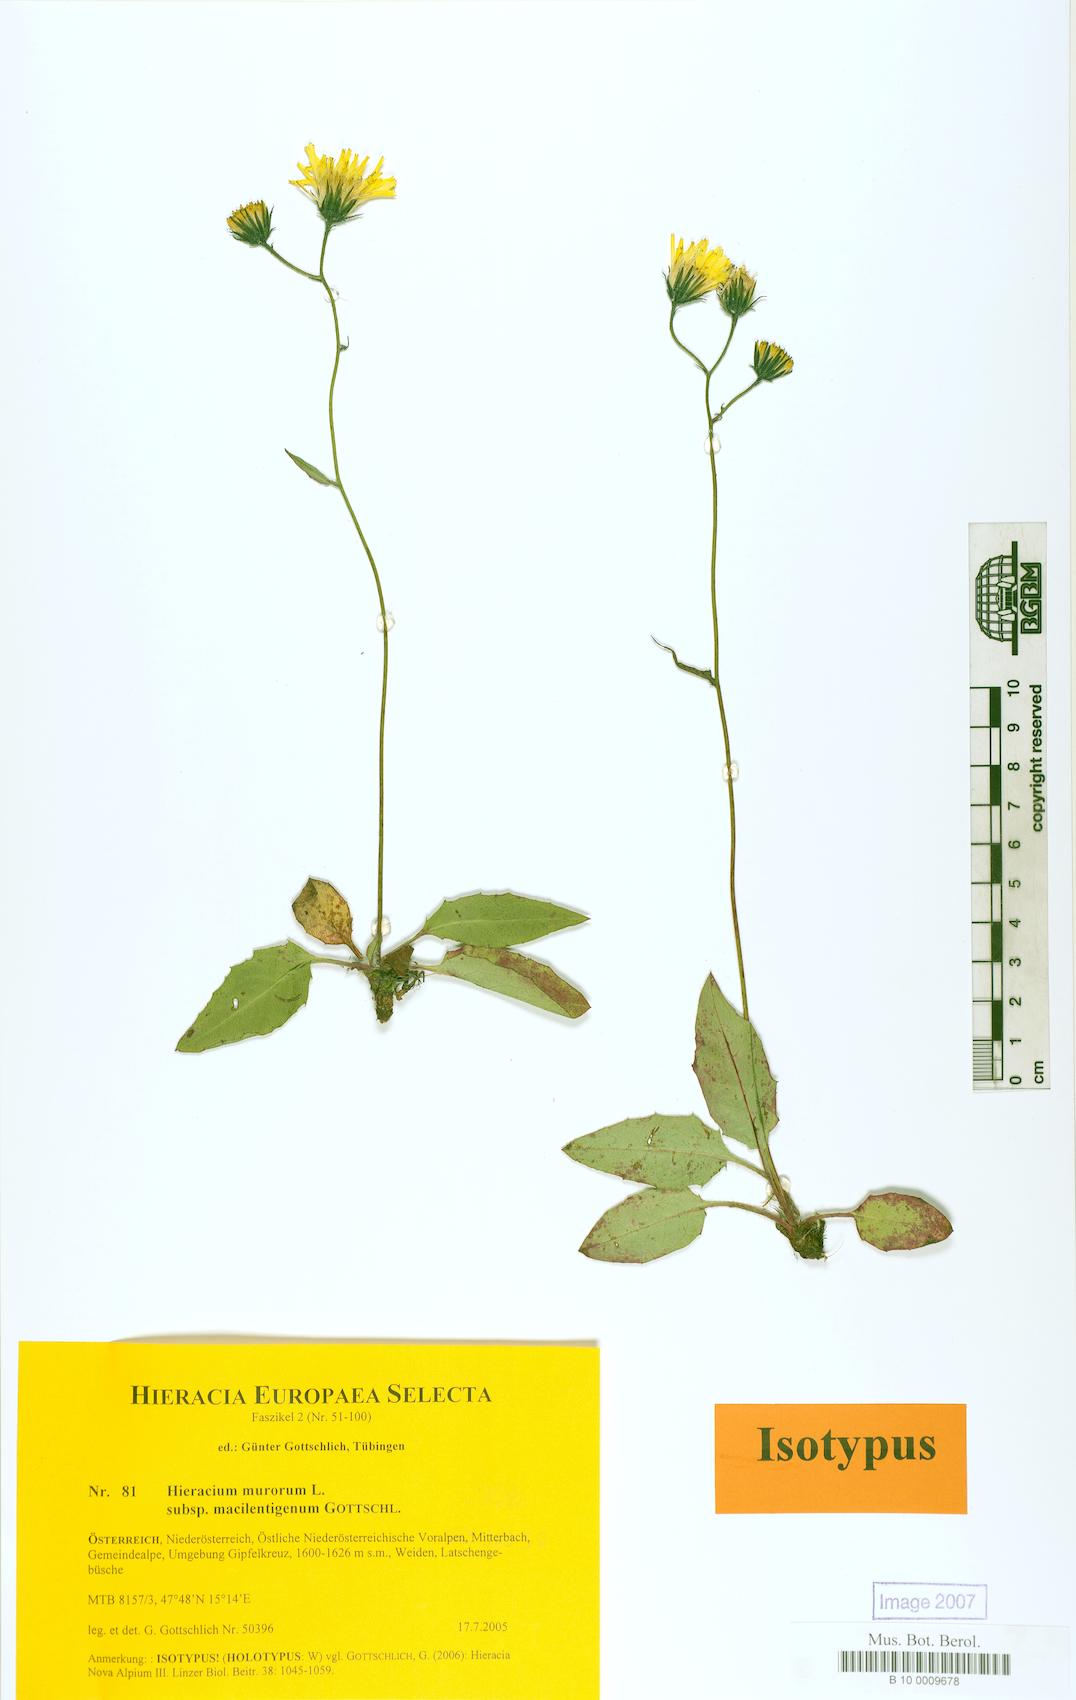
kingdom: Plantae
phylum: Tracheophyta
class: Magnoliopsida
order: Asterales
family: Asteraceae
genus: Hieracium
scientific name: Hieracium murorum
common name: Wall hawkweed
